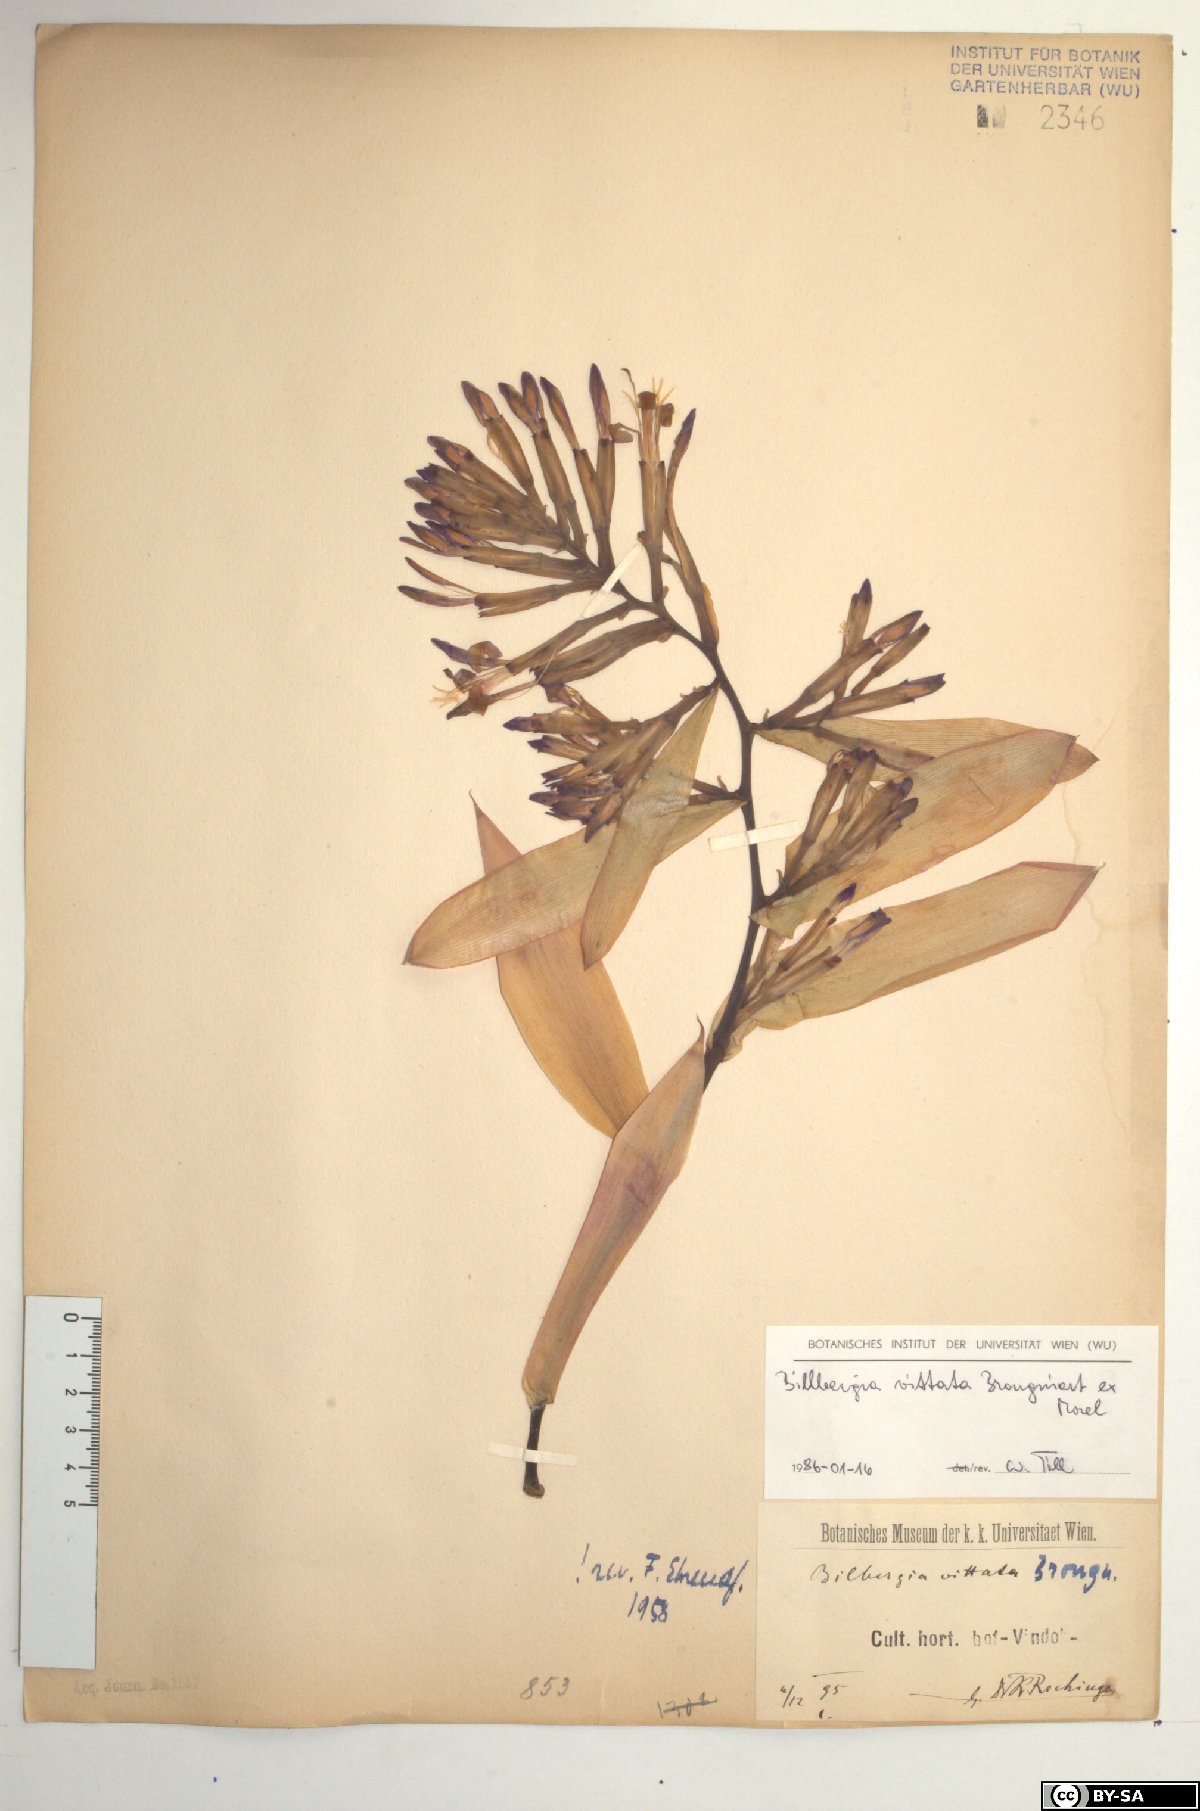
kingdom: Plantae
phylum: Tracheophyta
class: Liliopsida
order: Poales
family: Bromeliaceae
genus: Billbergia
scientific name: Billbergia vittata
